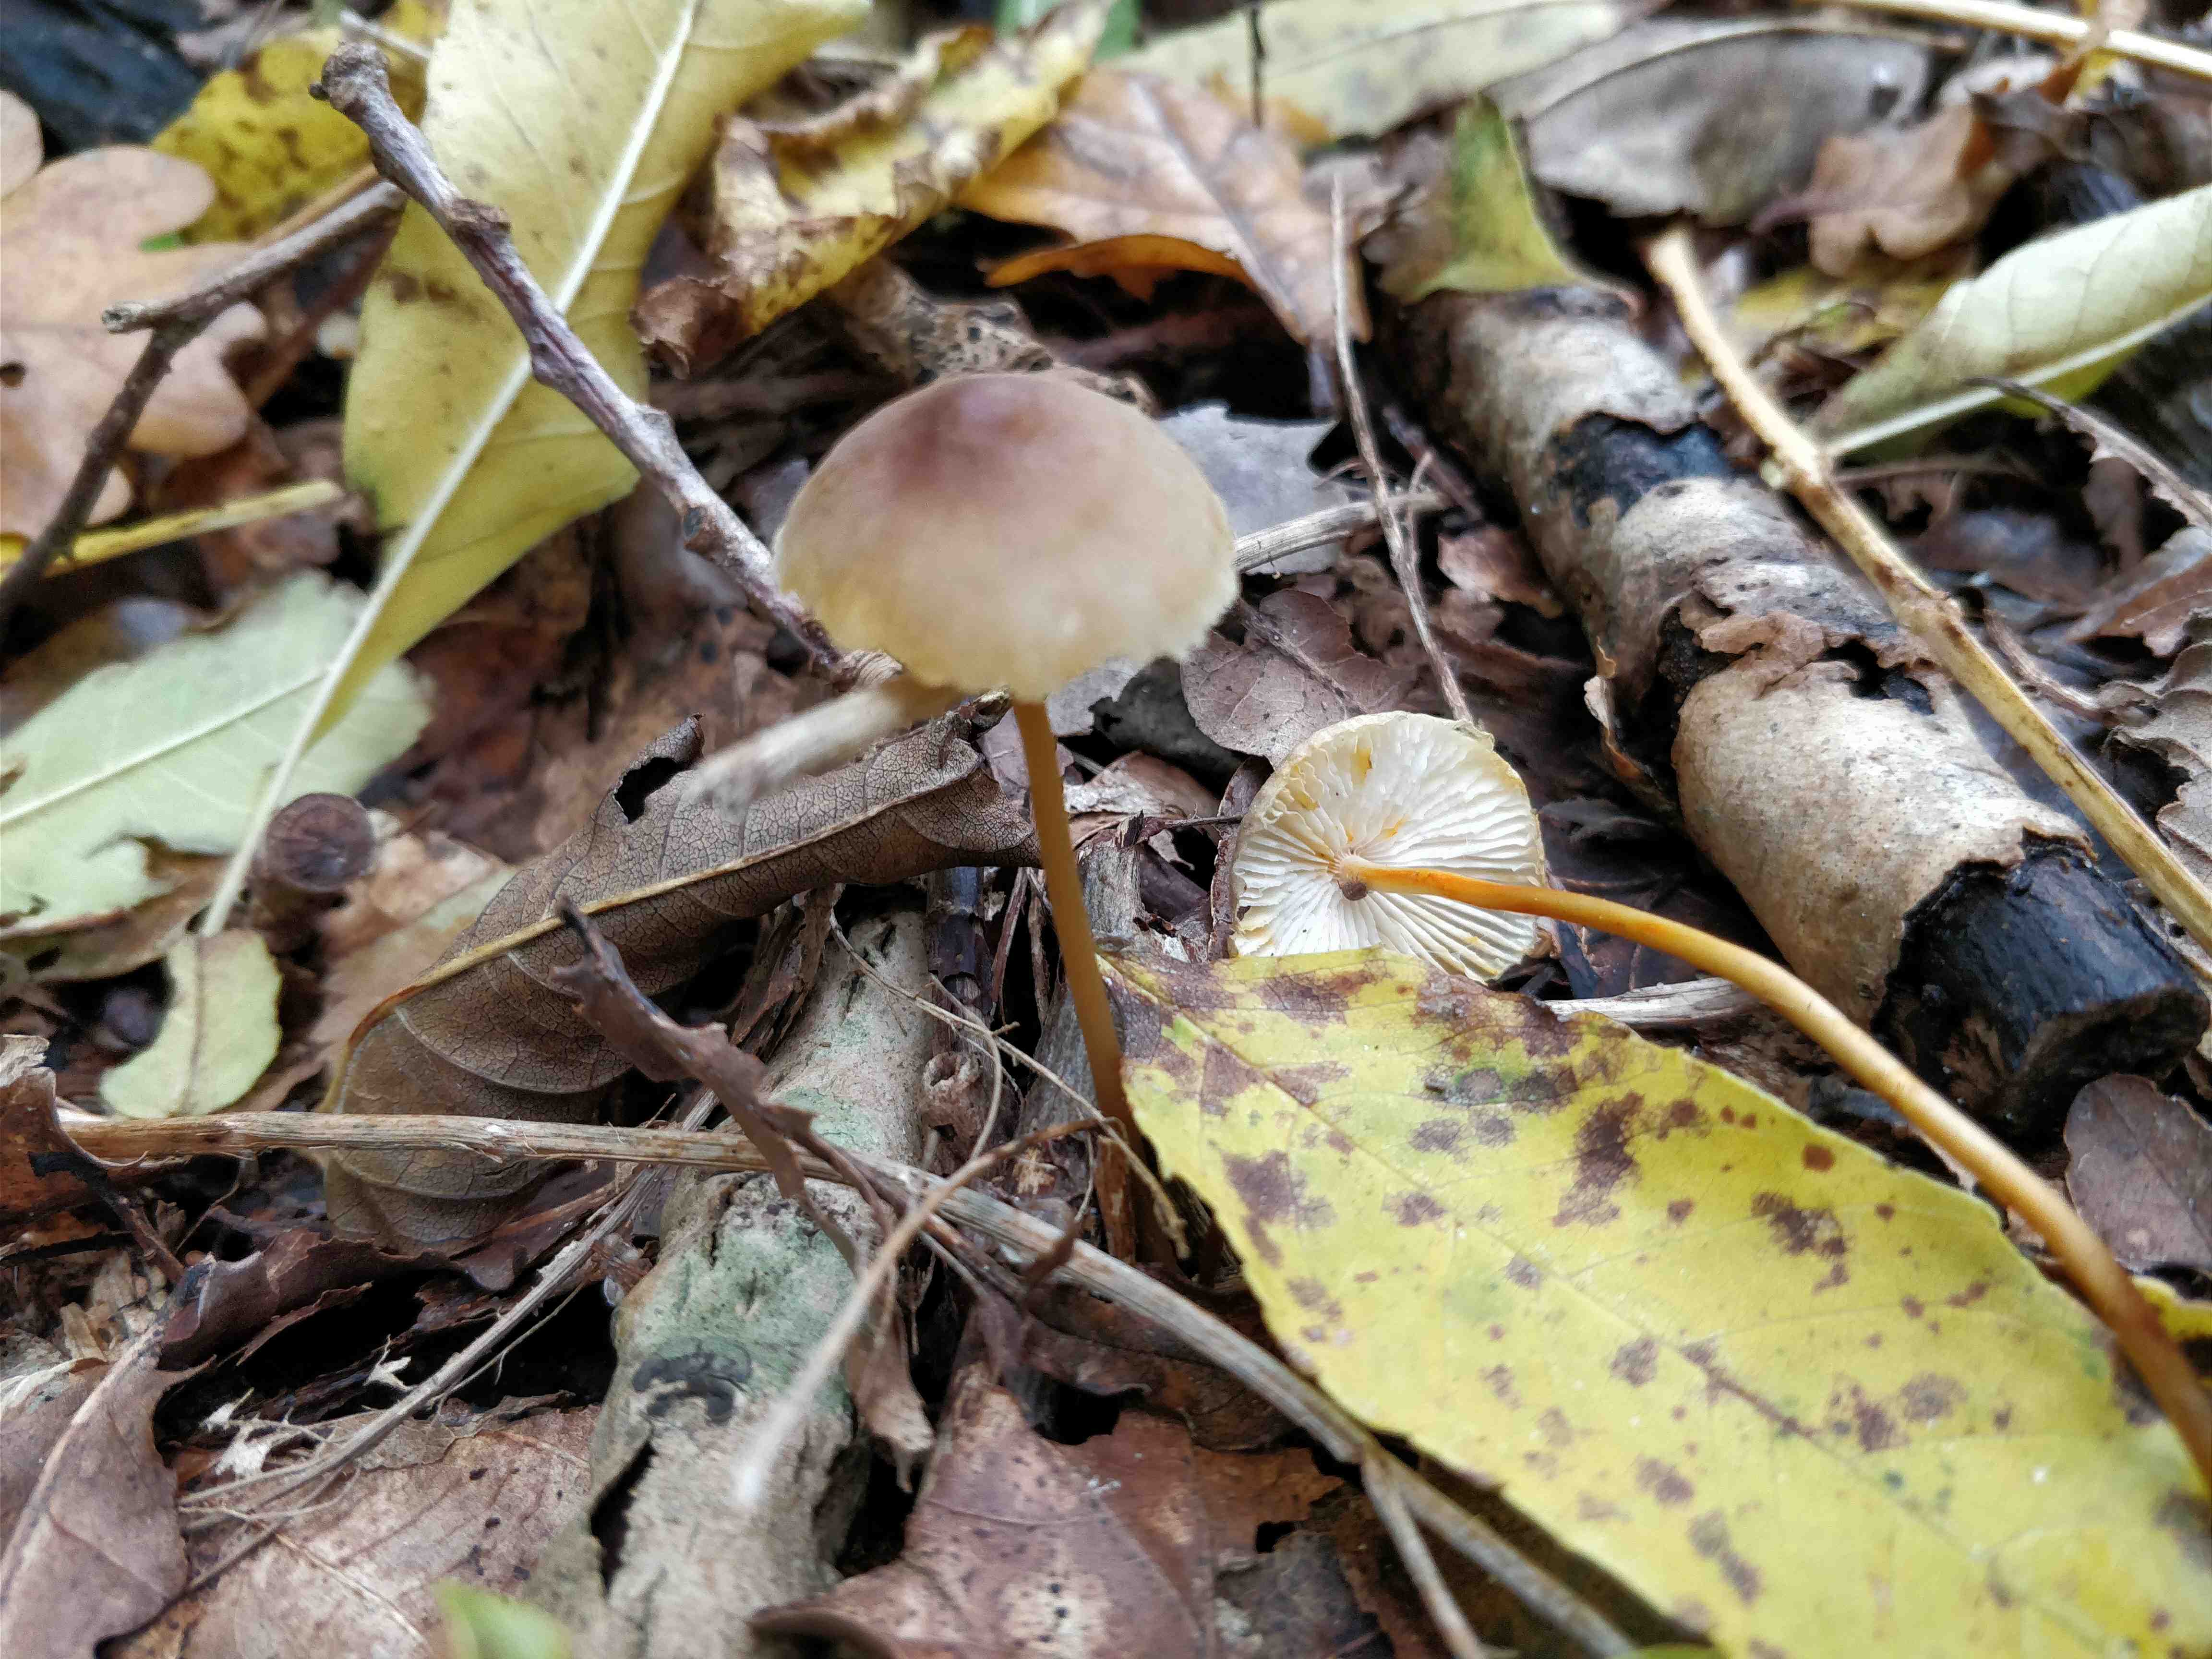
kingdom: Fungi
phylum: Basidiomycota
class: Agaricomycetes
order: Agaricales
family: Mycenaceae
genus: Mycena
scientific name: Mycena crocata
